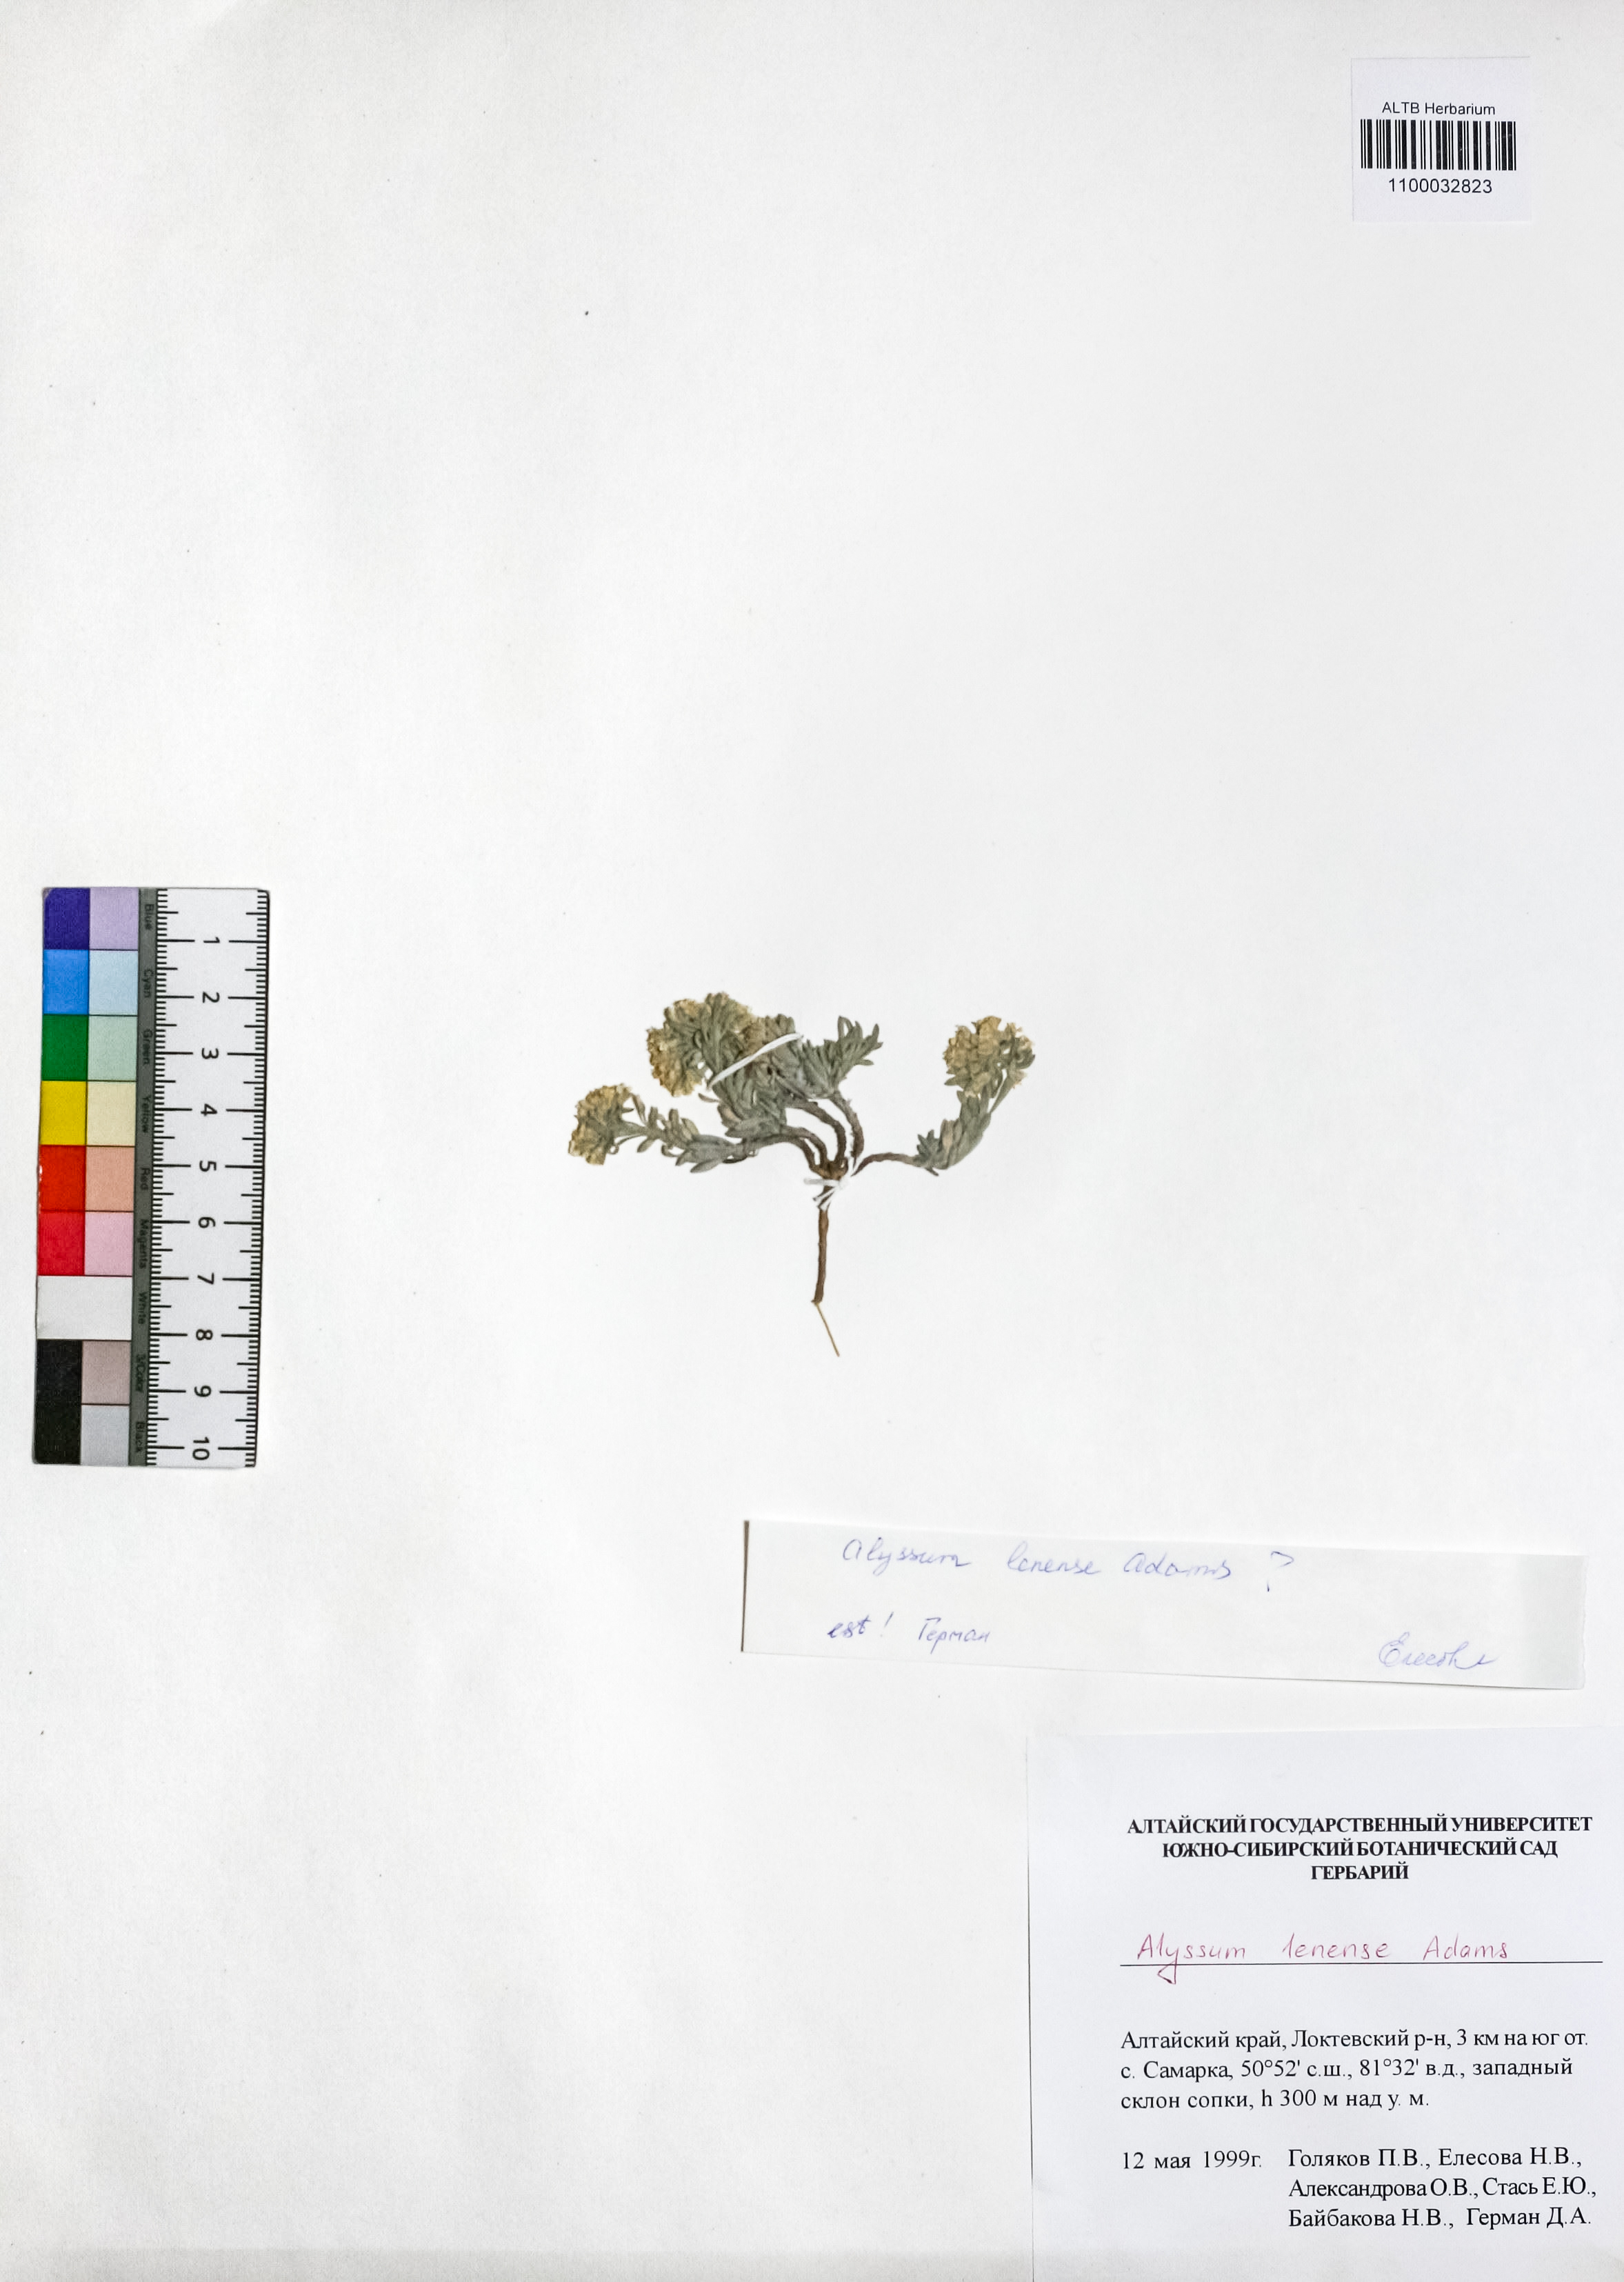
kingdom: Plantae
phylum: Tracheophyta
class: Magnoliopsida
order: Brassicales
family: Brassicaceae
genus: Alyssum
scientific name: Alyssum lenense
